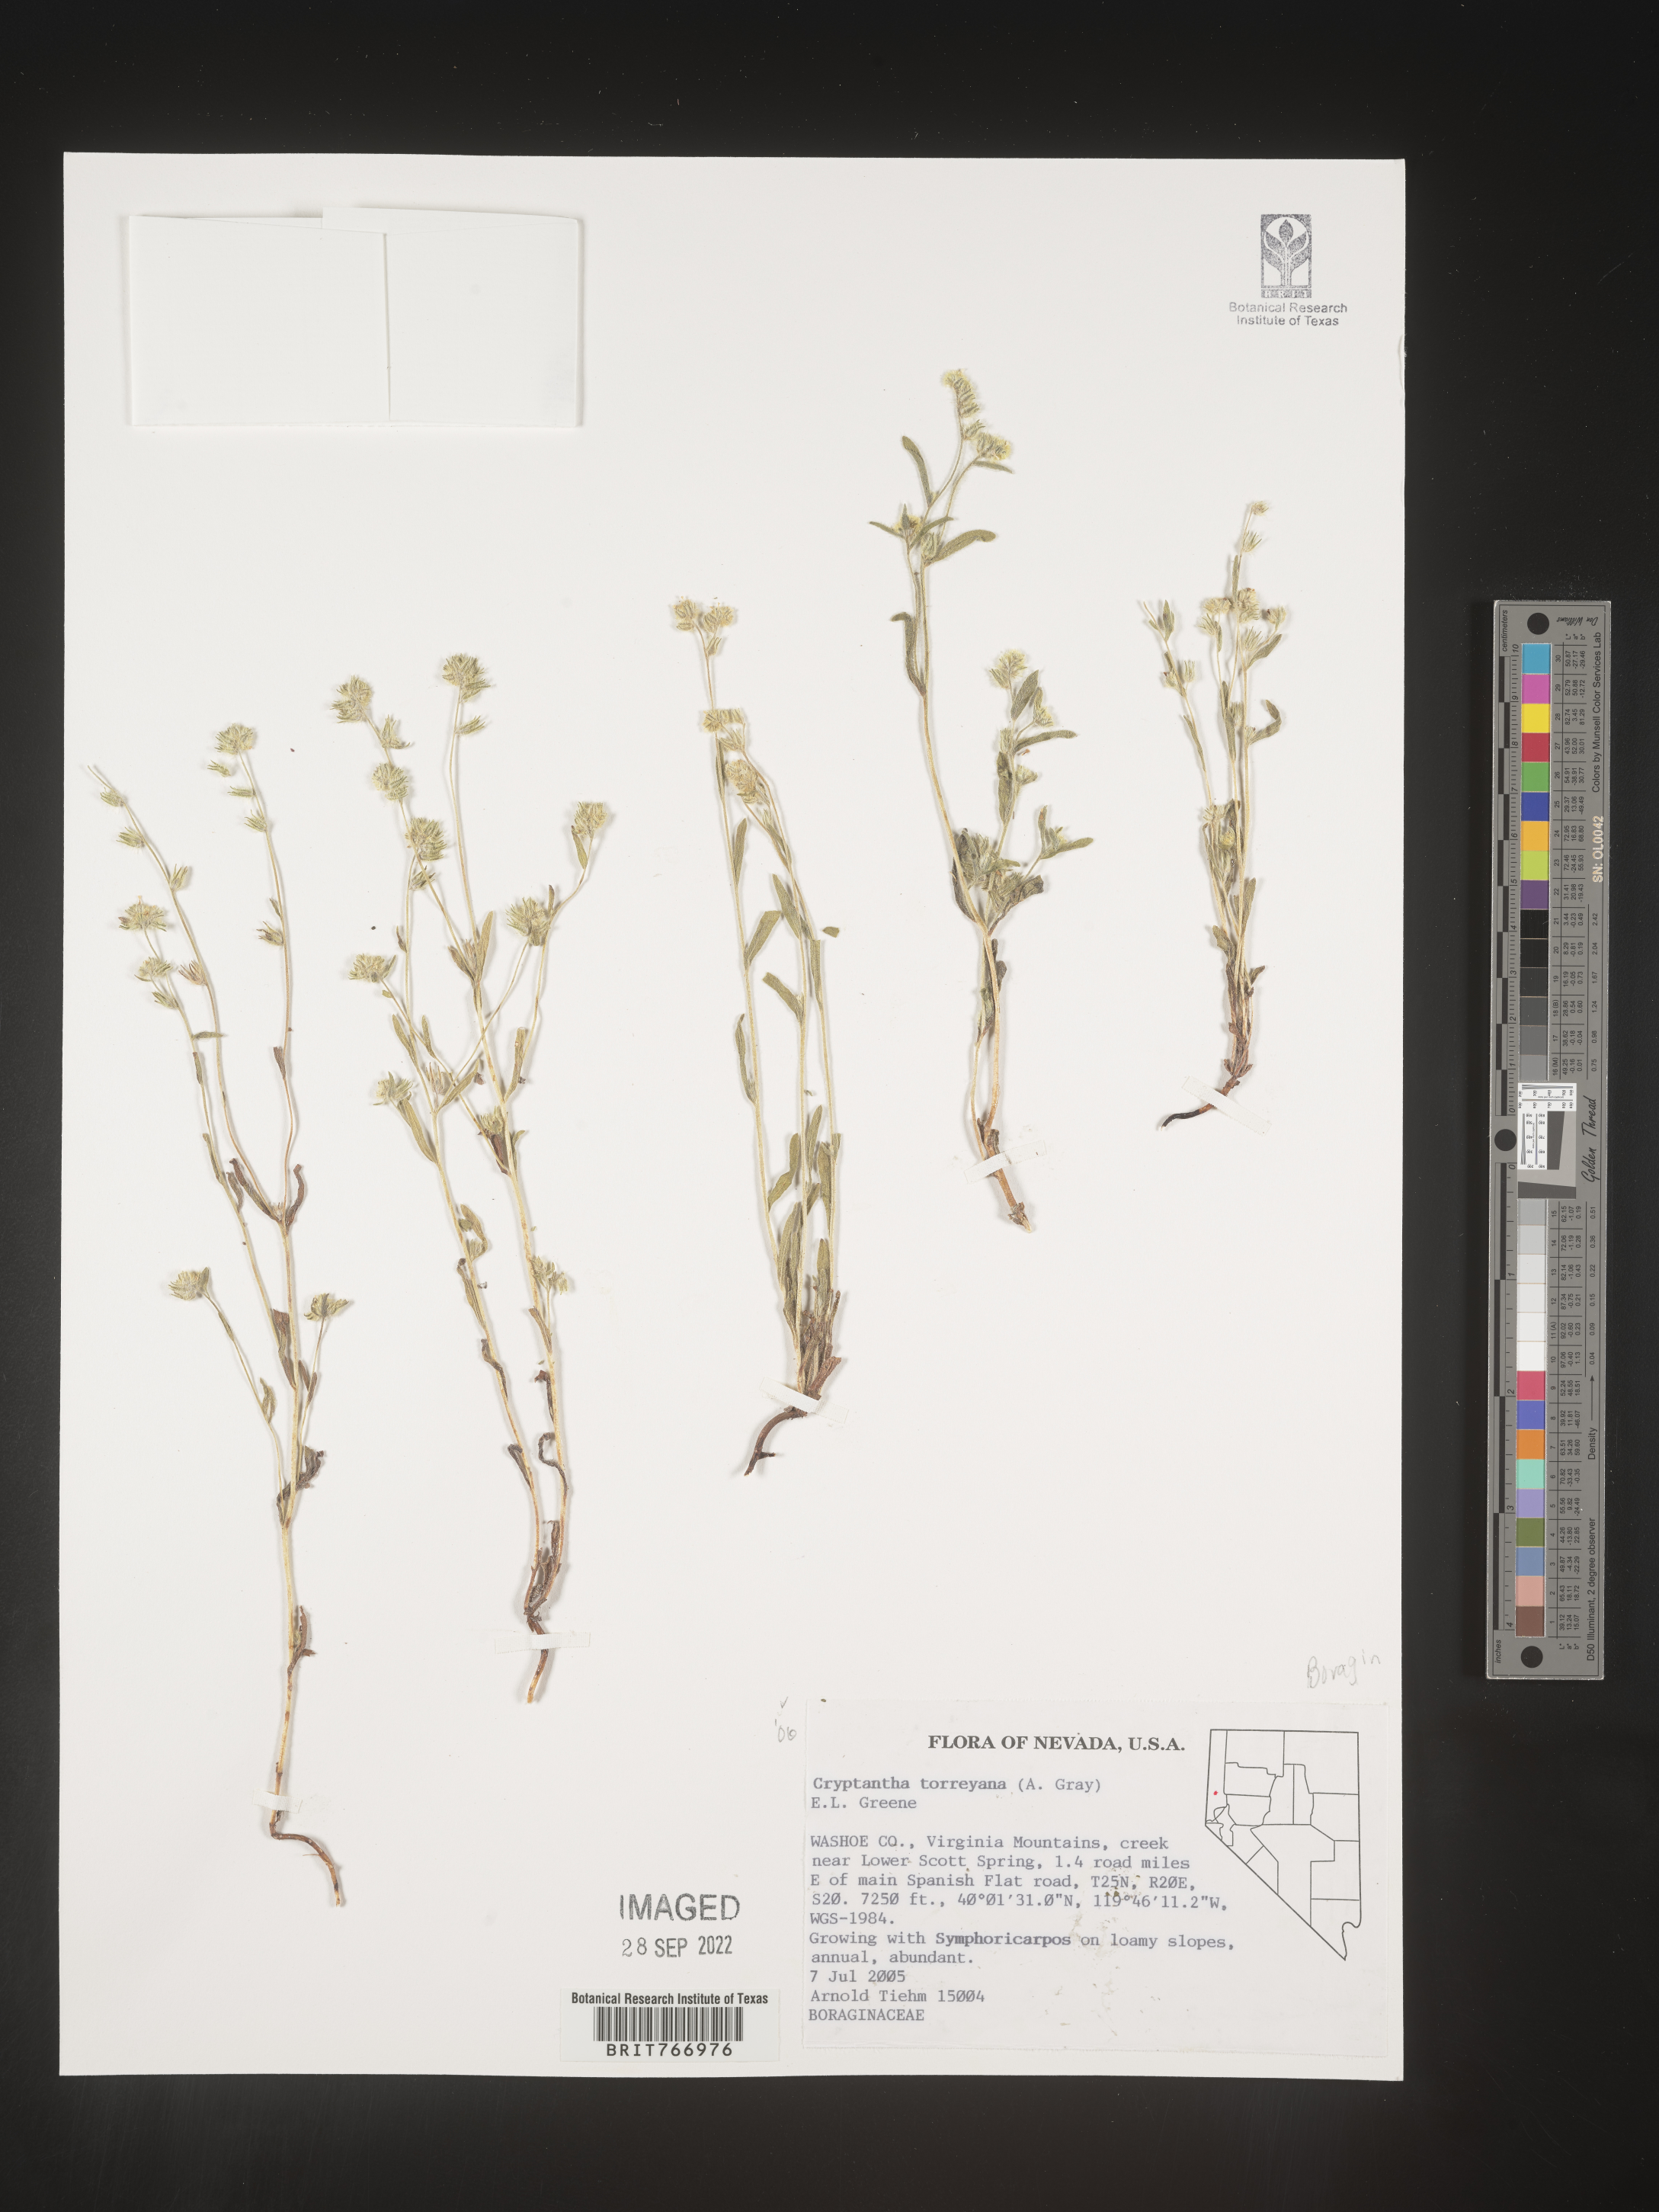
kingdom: Plantae
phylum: Tracheophyta
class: Magnoliopsida
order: Boraginales
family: Boraginaceae
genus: Cryptantha
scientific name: Cryptantha
